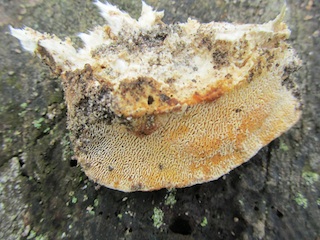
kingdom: Fungi
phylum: Basidiomycota
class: Agaricomycetes
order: Polyporales
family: Polyporaceae
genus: Daedaleopsis
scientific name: Daedaleopsis confragosa
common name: rødmende læderporesvamp
